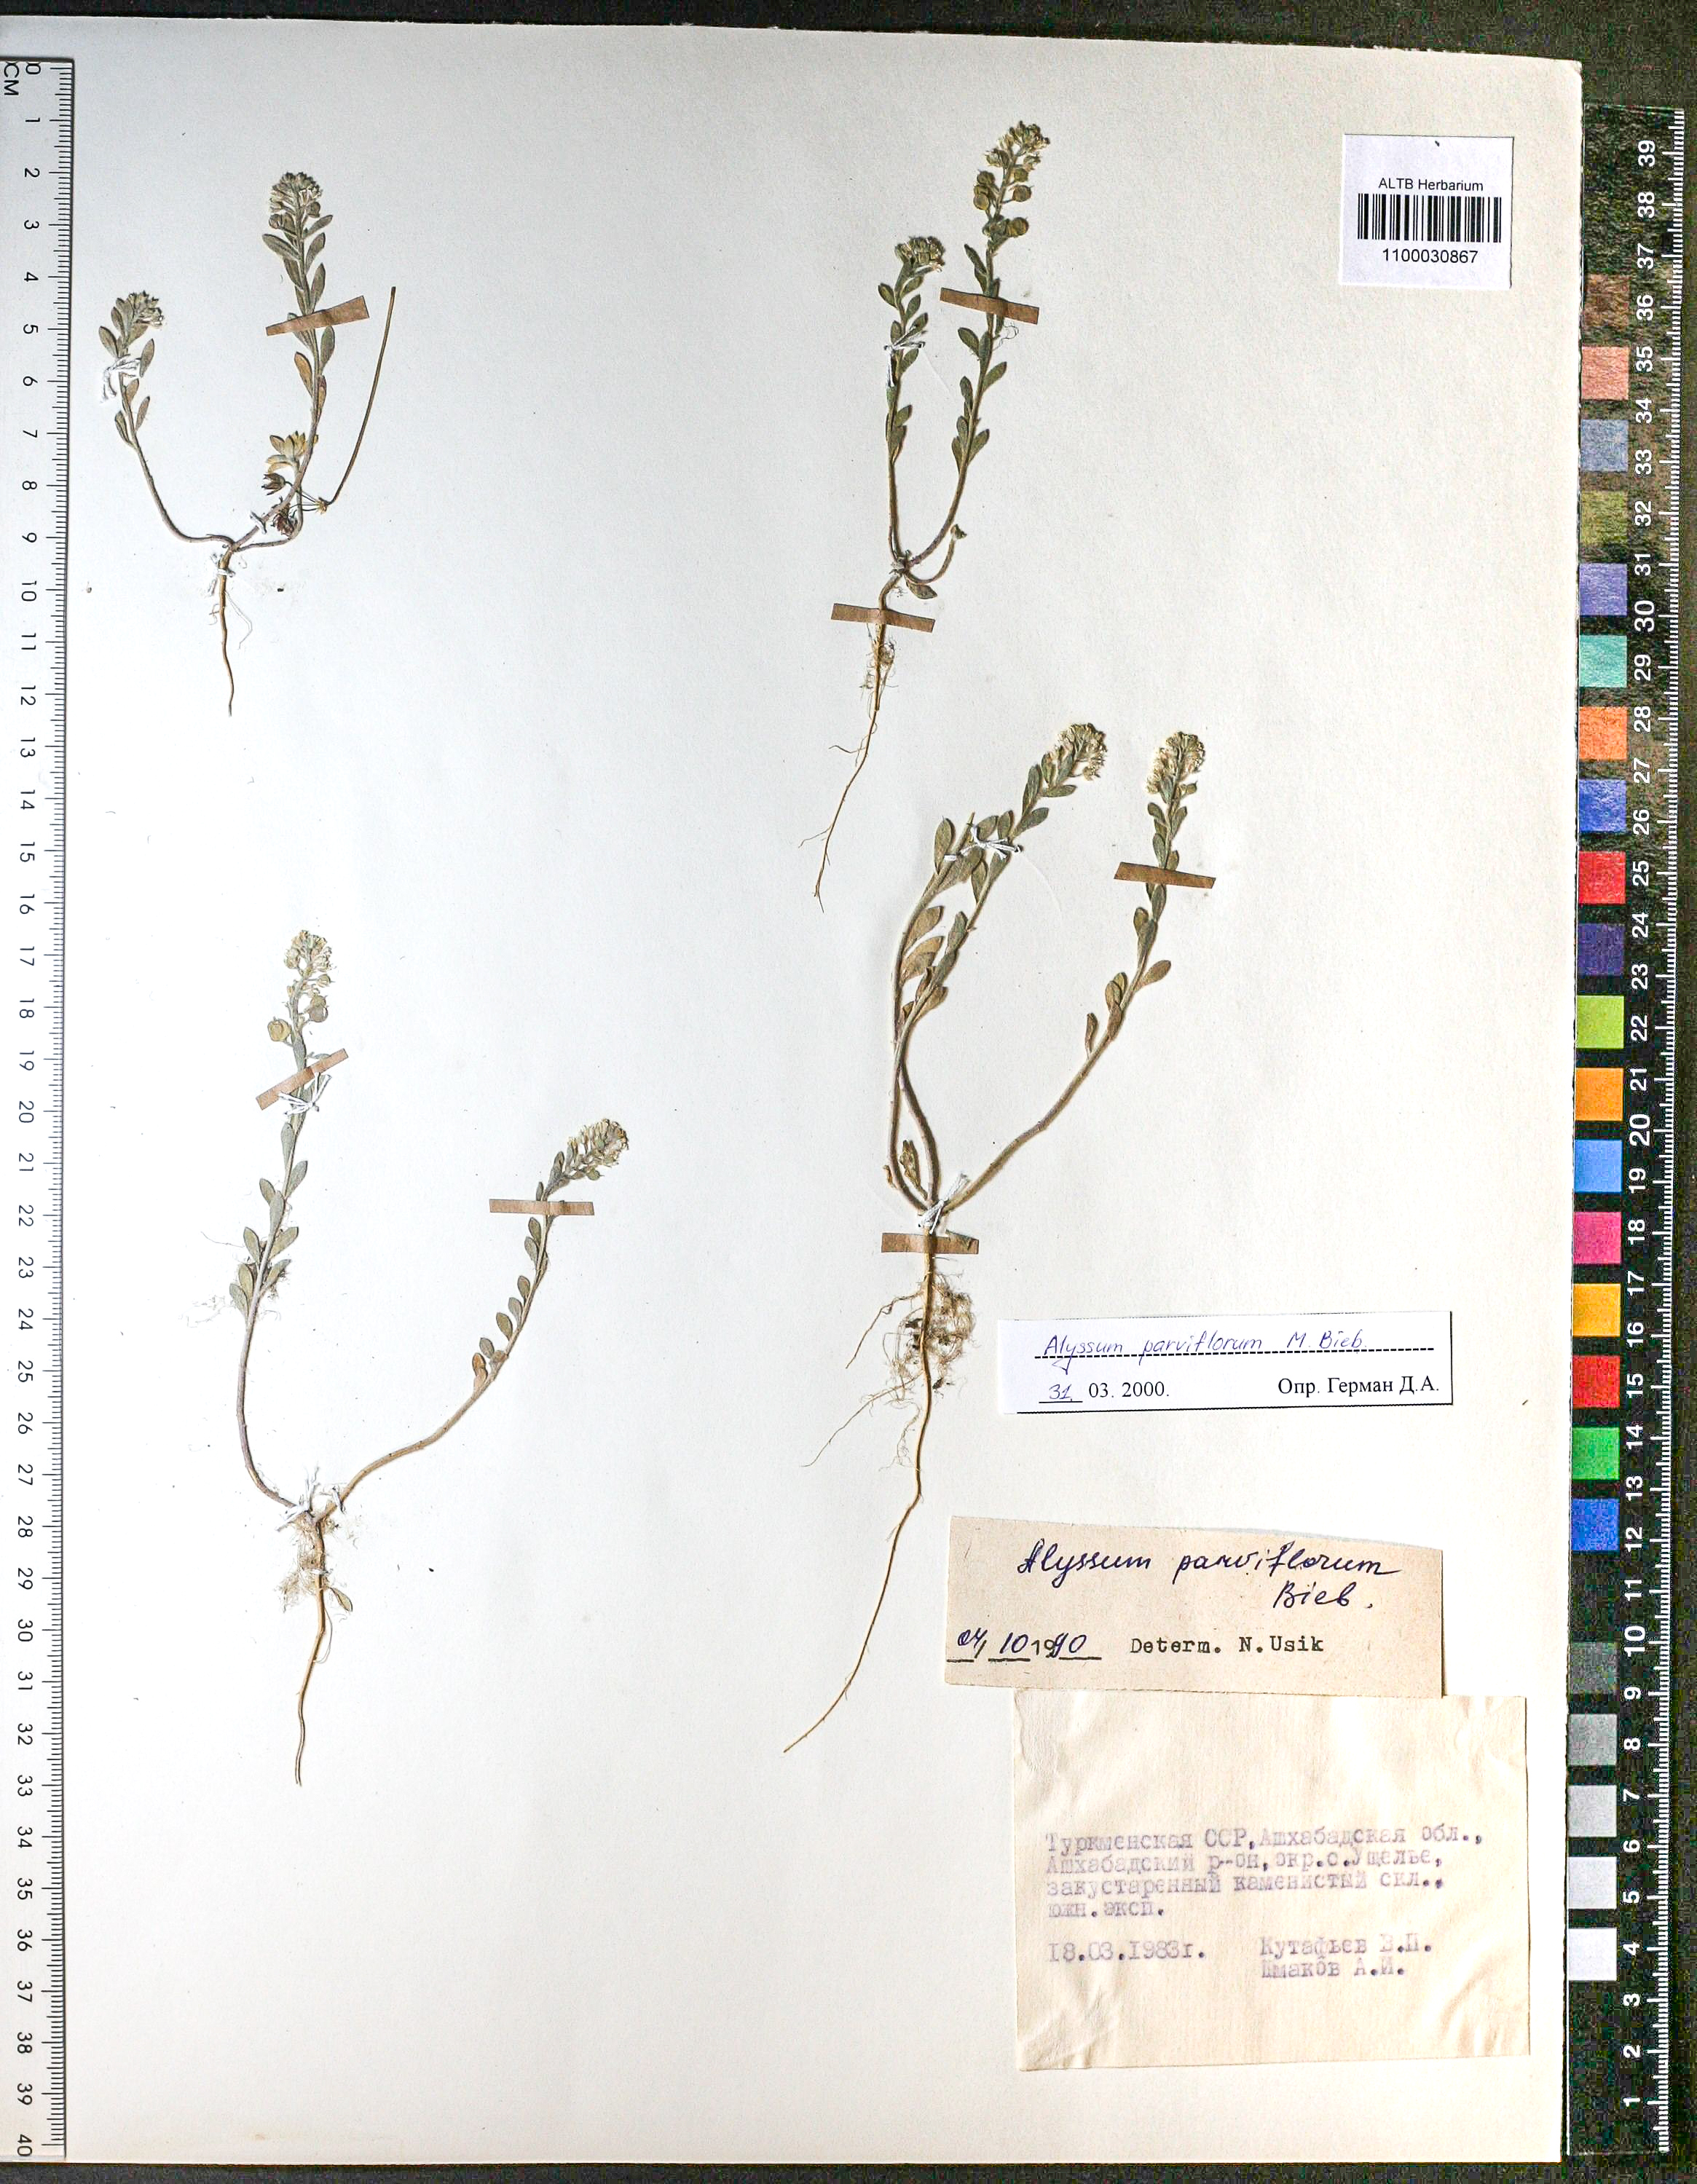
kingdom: Plantae
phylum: Tracheophyta
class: Magnoliopsida
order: Brassicales
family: Brassicaceae
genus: Alyssum
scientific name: Alyssum simplex
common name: Alyssum
